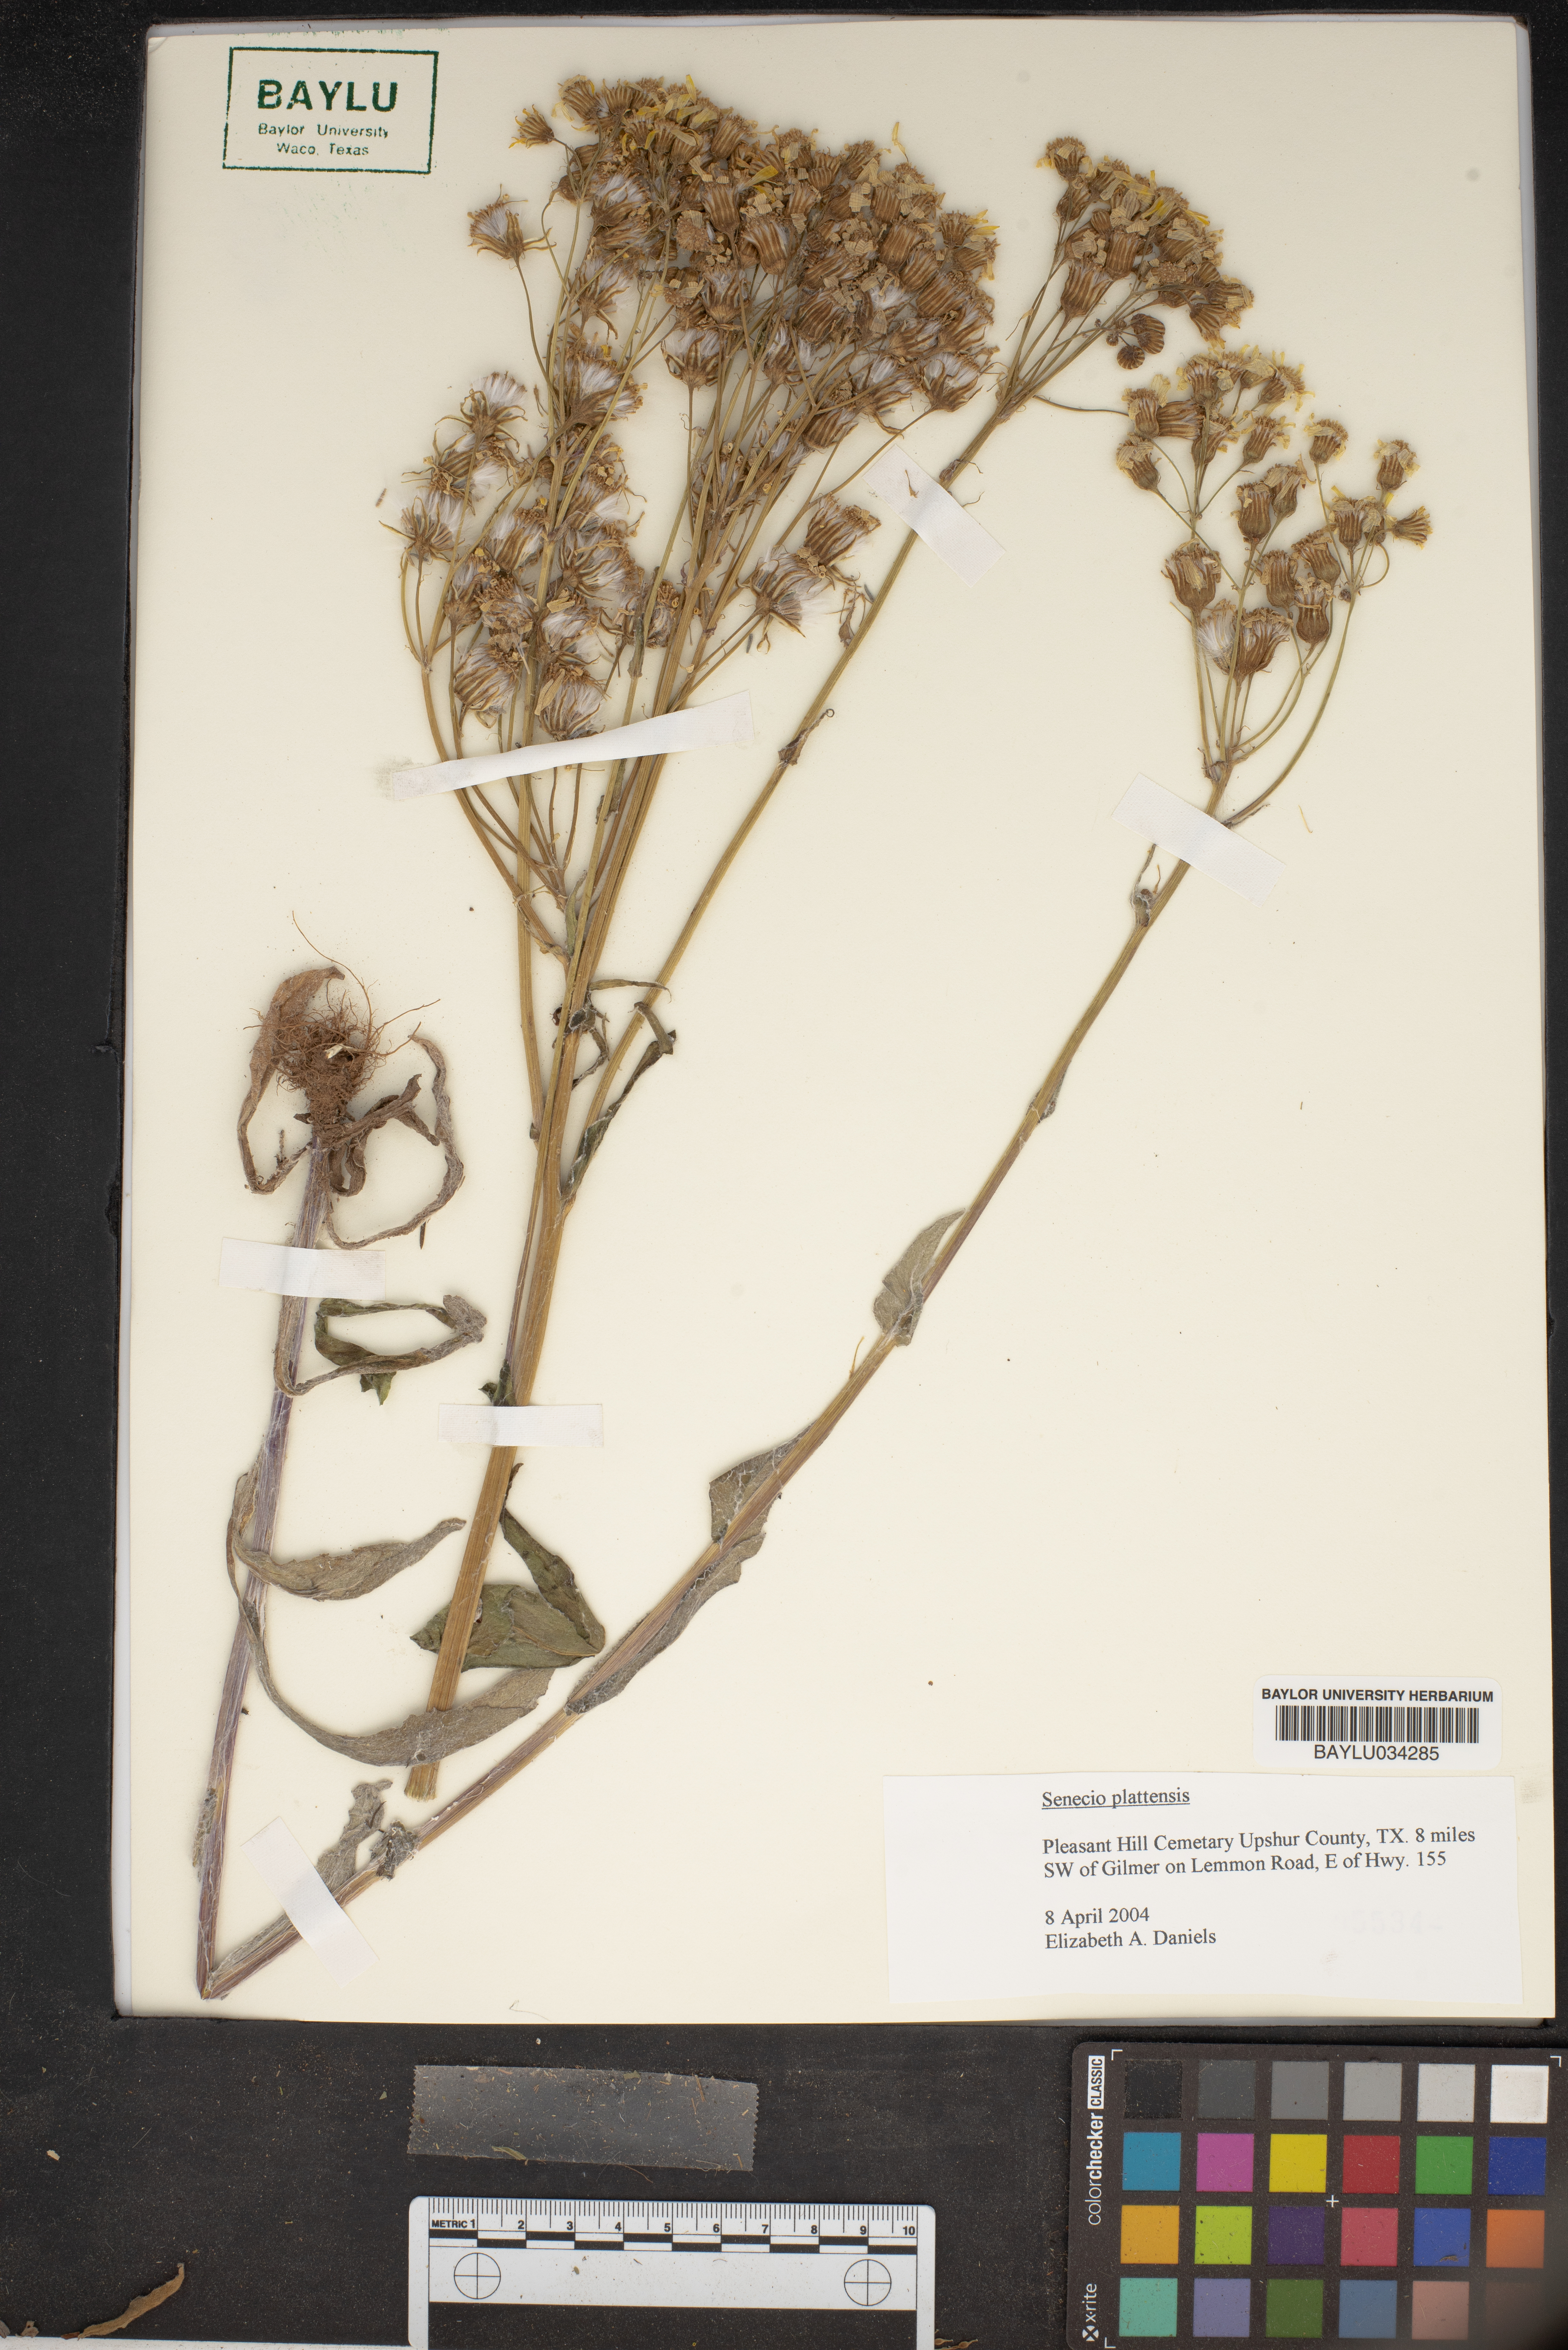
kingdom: Plantae
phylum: Tracheophyta
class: Magnoliopsida
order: Asterales
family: Asteraceae
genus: Packera
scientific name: Packera plattensis
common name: Prairie groundsel
